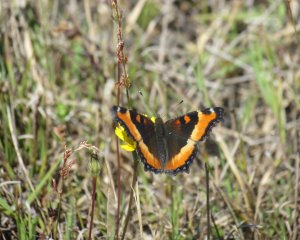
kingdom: Animalia
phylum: Arthropoda
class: Insecta
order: Lepidoptera
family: Nymphalidae
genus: Aglais
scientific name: Aglais milberti
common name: Milbert's Tortoiseshell
